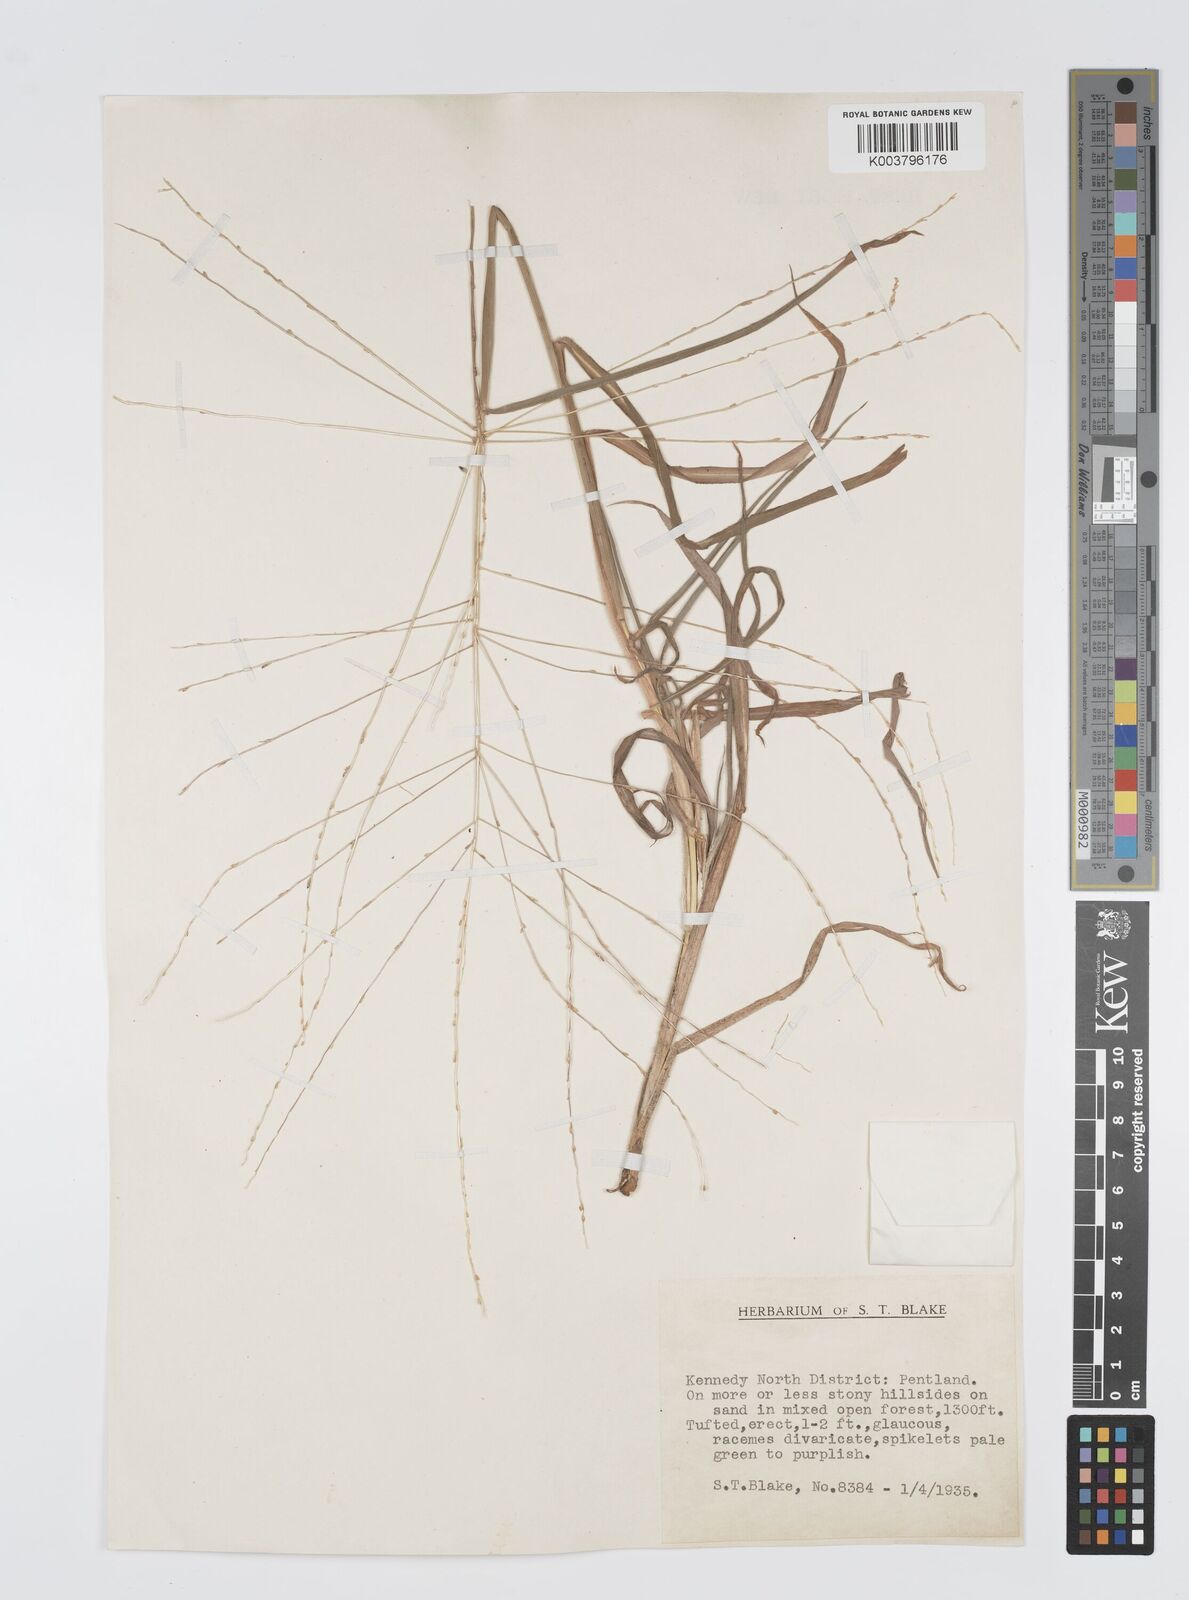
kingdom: Plantae
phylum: Tracheophyta
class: Liliopsida
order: Poales
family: Poaceae
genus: Digitaria
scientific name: Digitaria nematostachya
